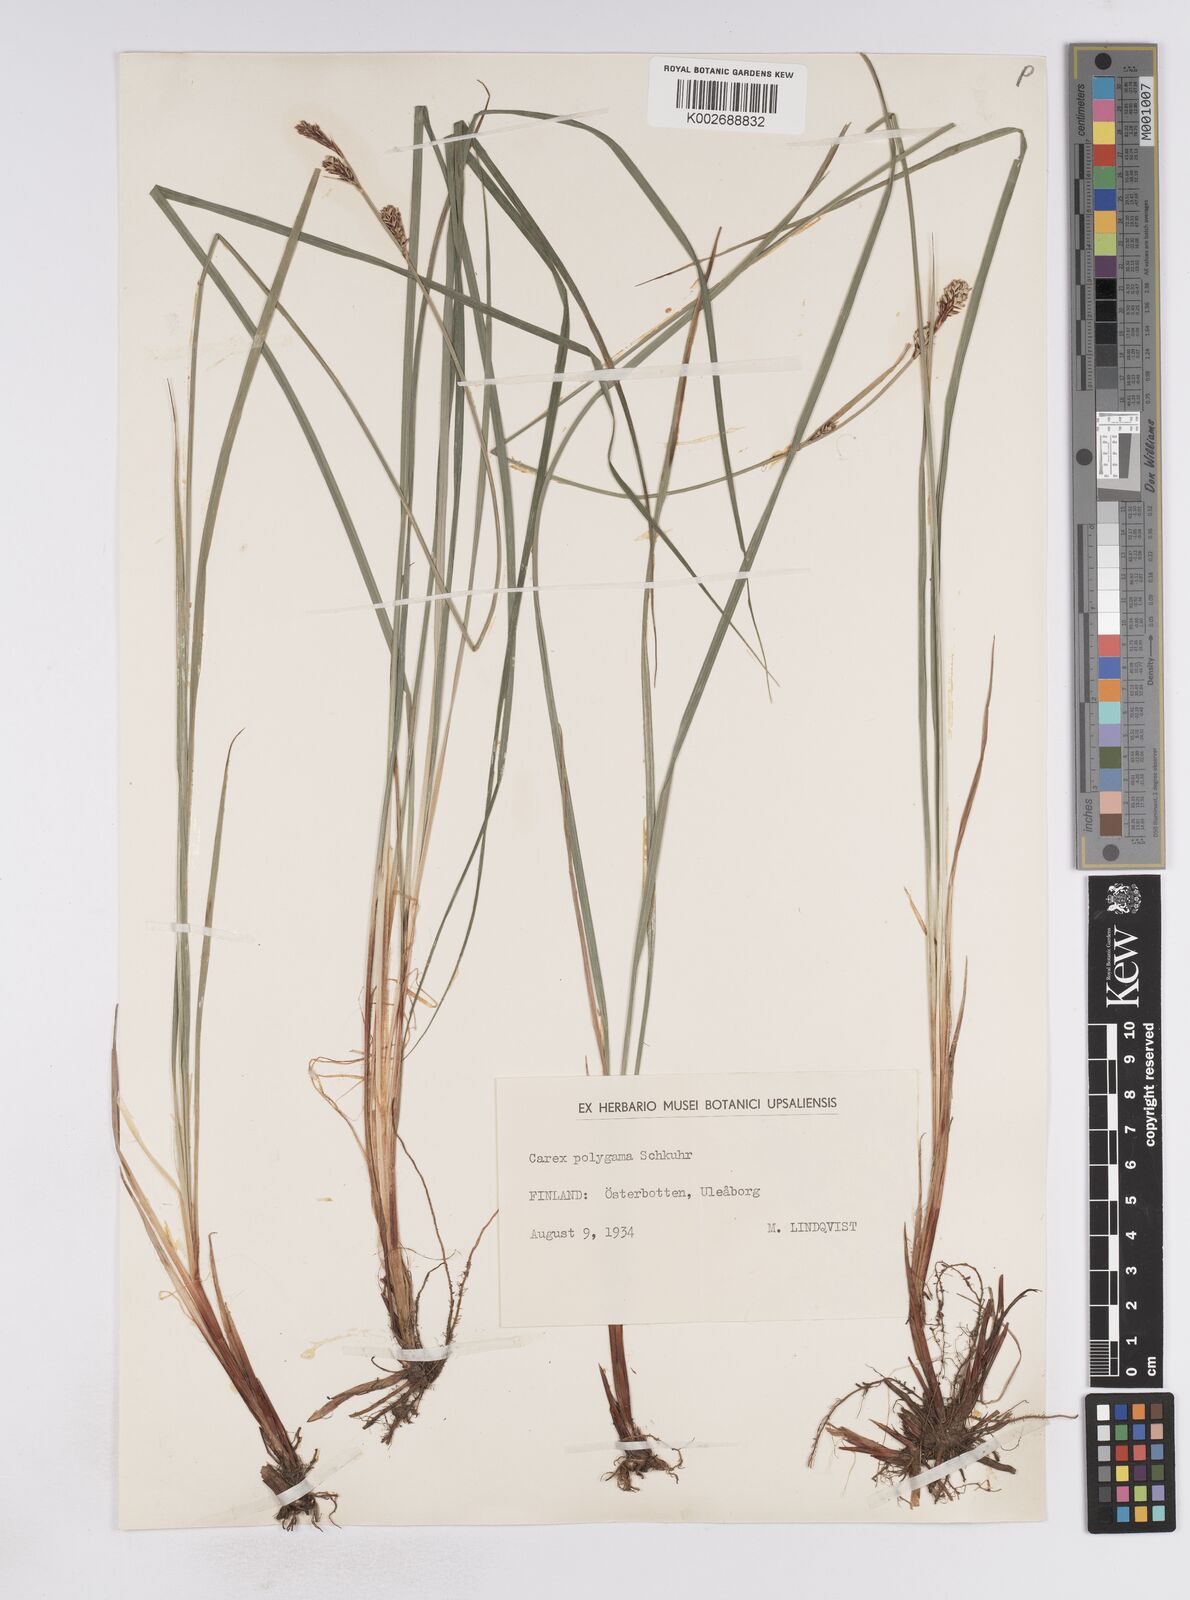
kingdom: Plantae
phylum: Tracheophyta
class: Liliopsida
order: Poales
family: Cyperaceae
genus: Carex
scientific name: Carex buxbaumii
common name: Club sedge
